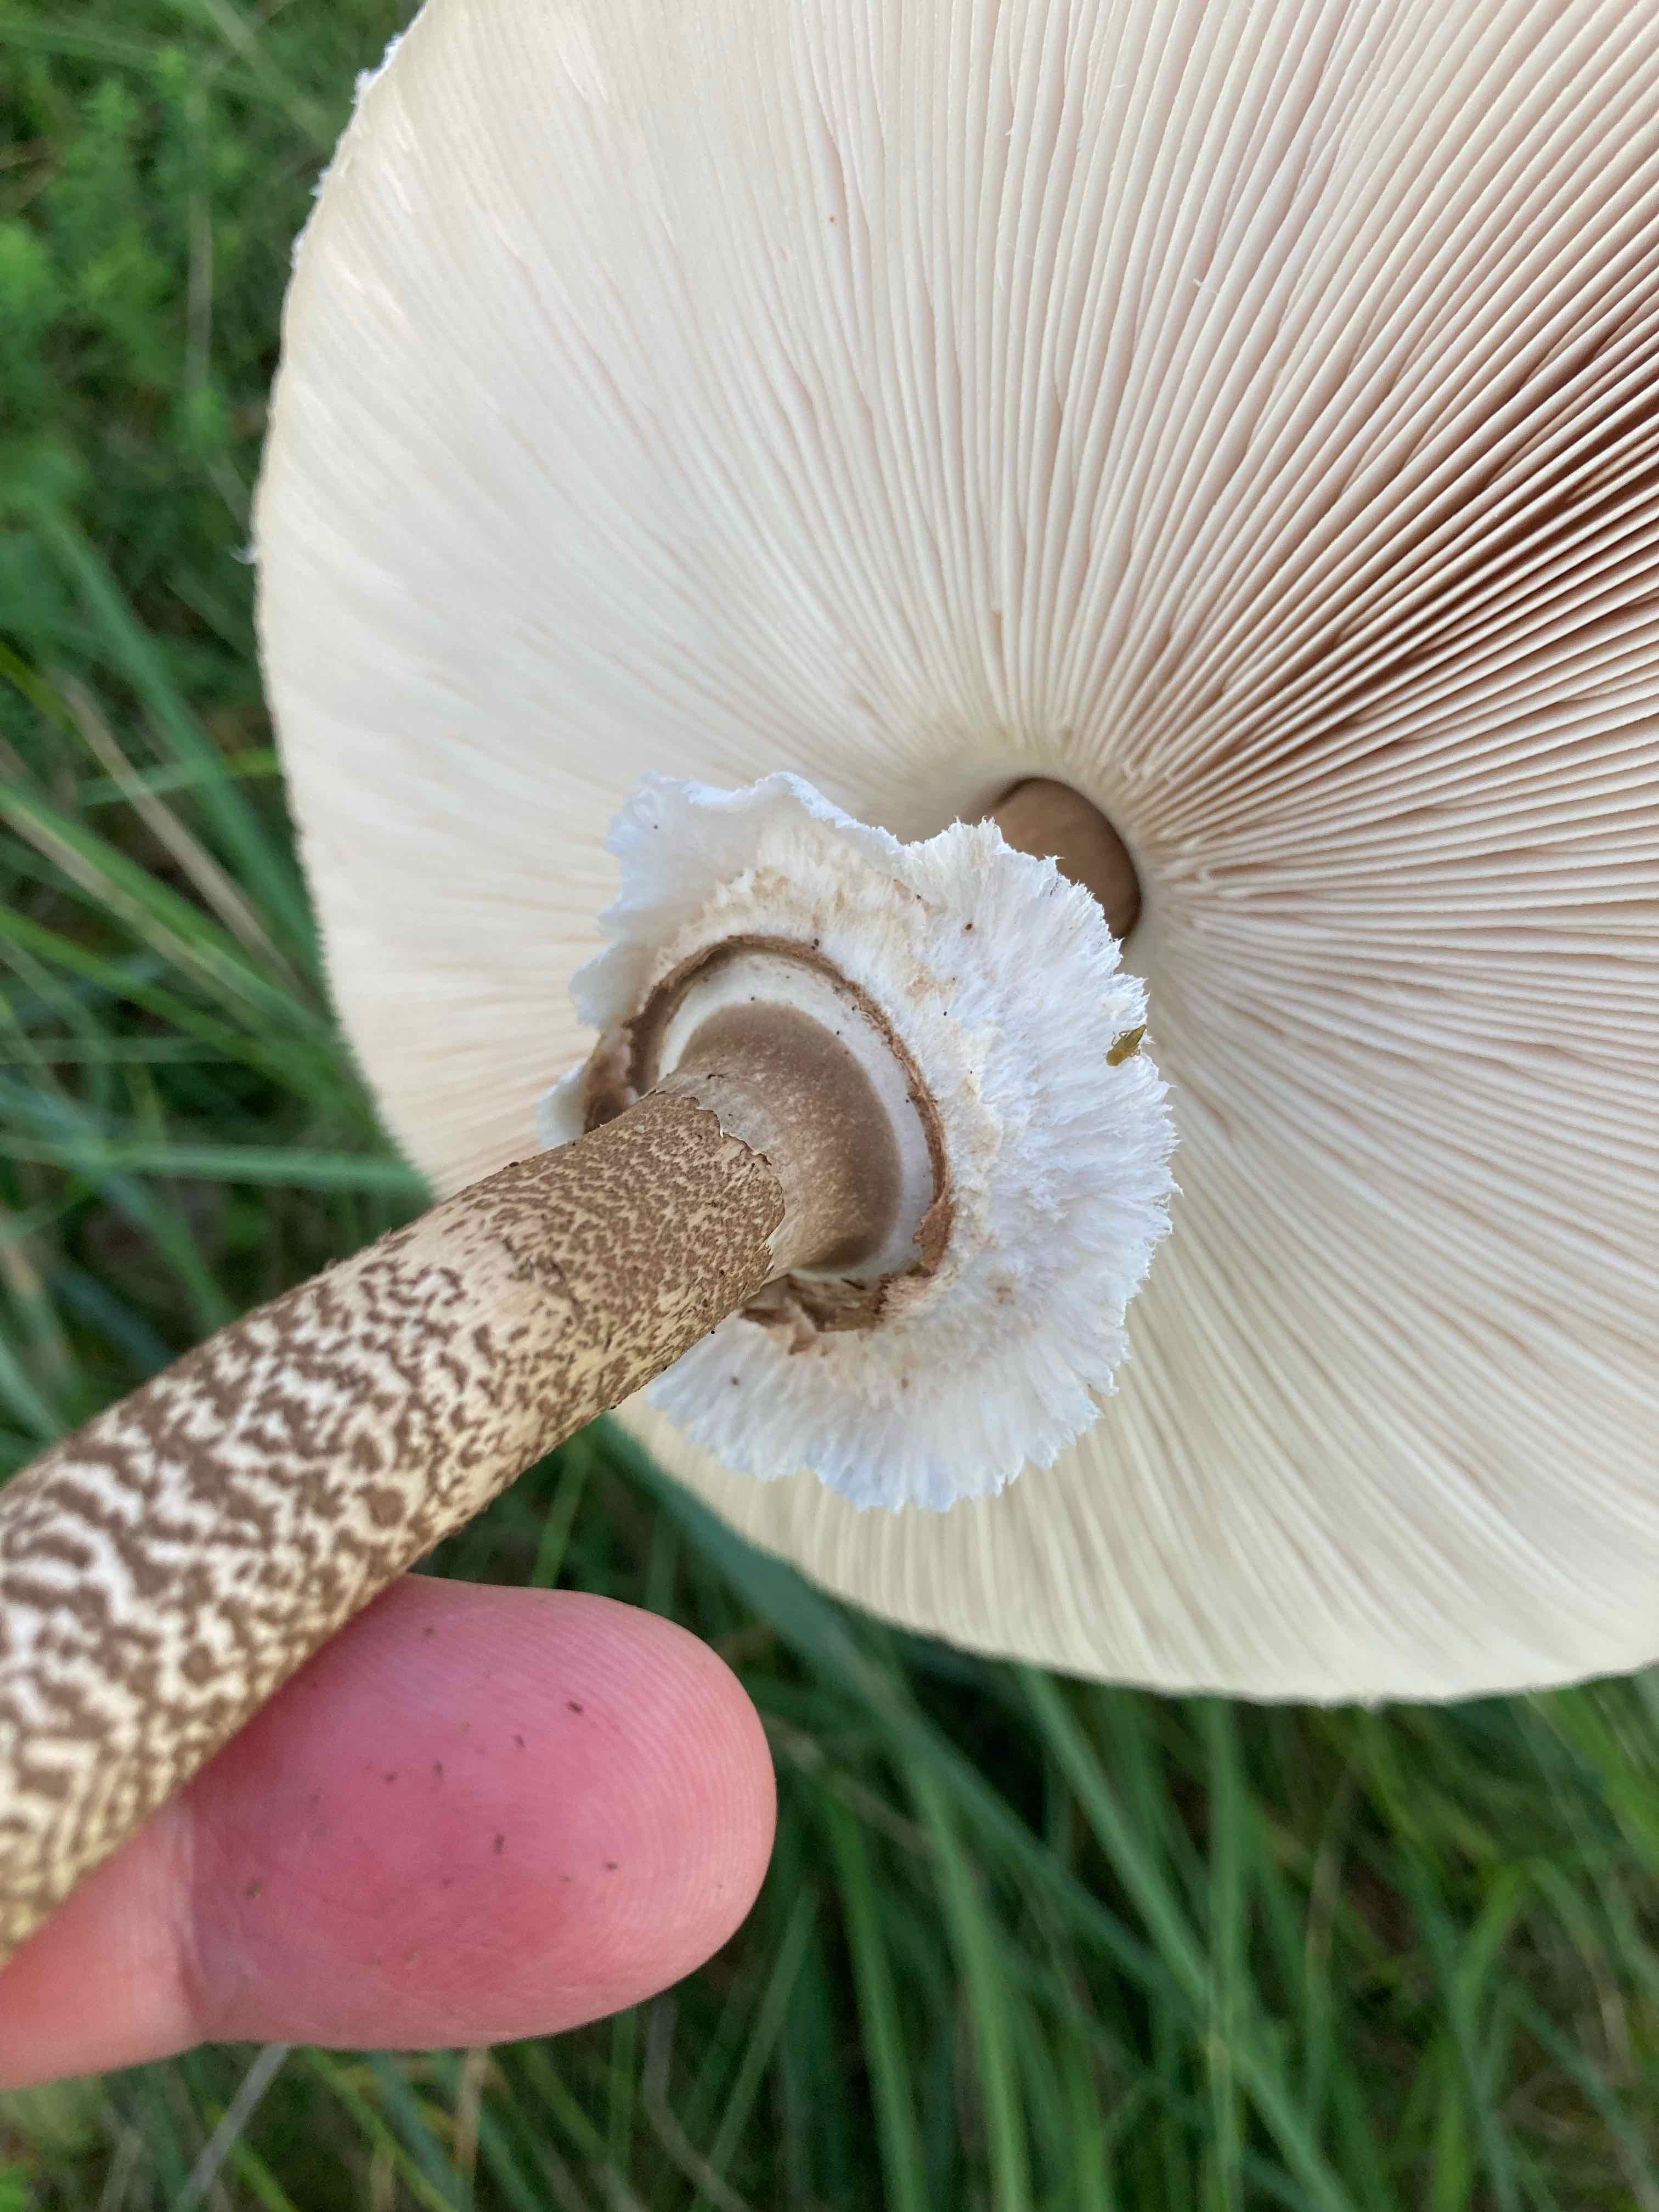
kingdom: Fungi
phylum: Basidiomycota
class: Agaricomycetes
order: Agaricales
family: Agaricaceae
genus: Macrolepiota
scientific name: Macrolepiota procera
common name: stor kæmpeparasolhat
